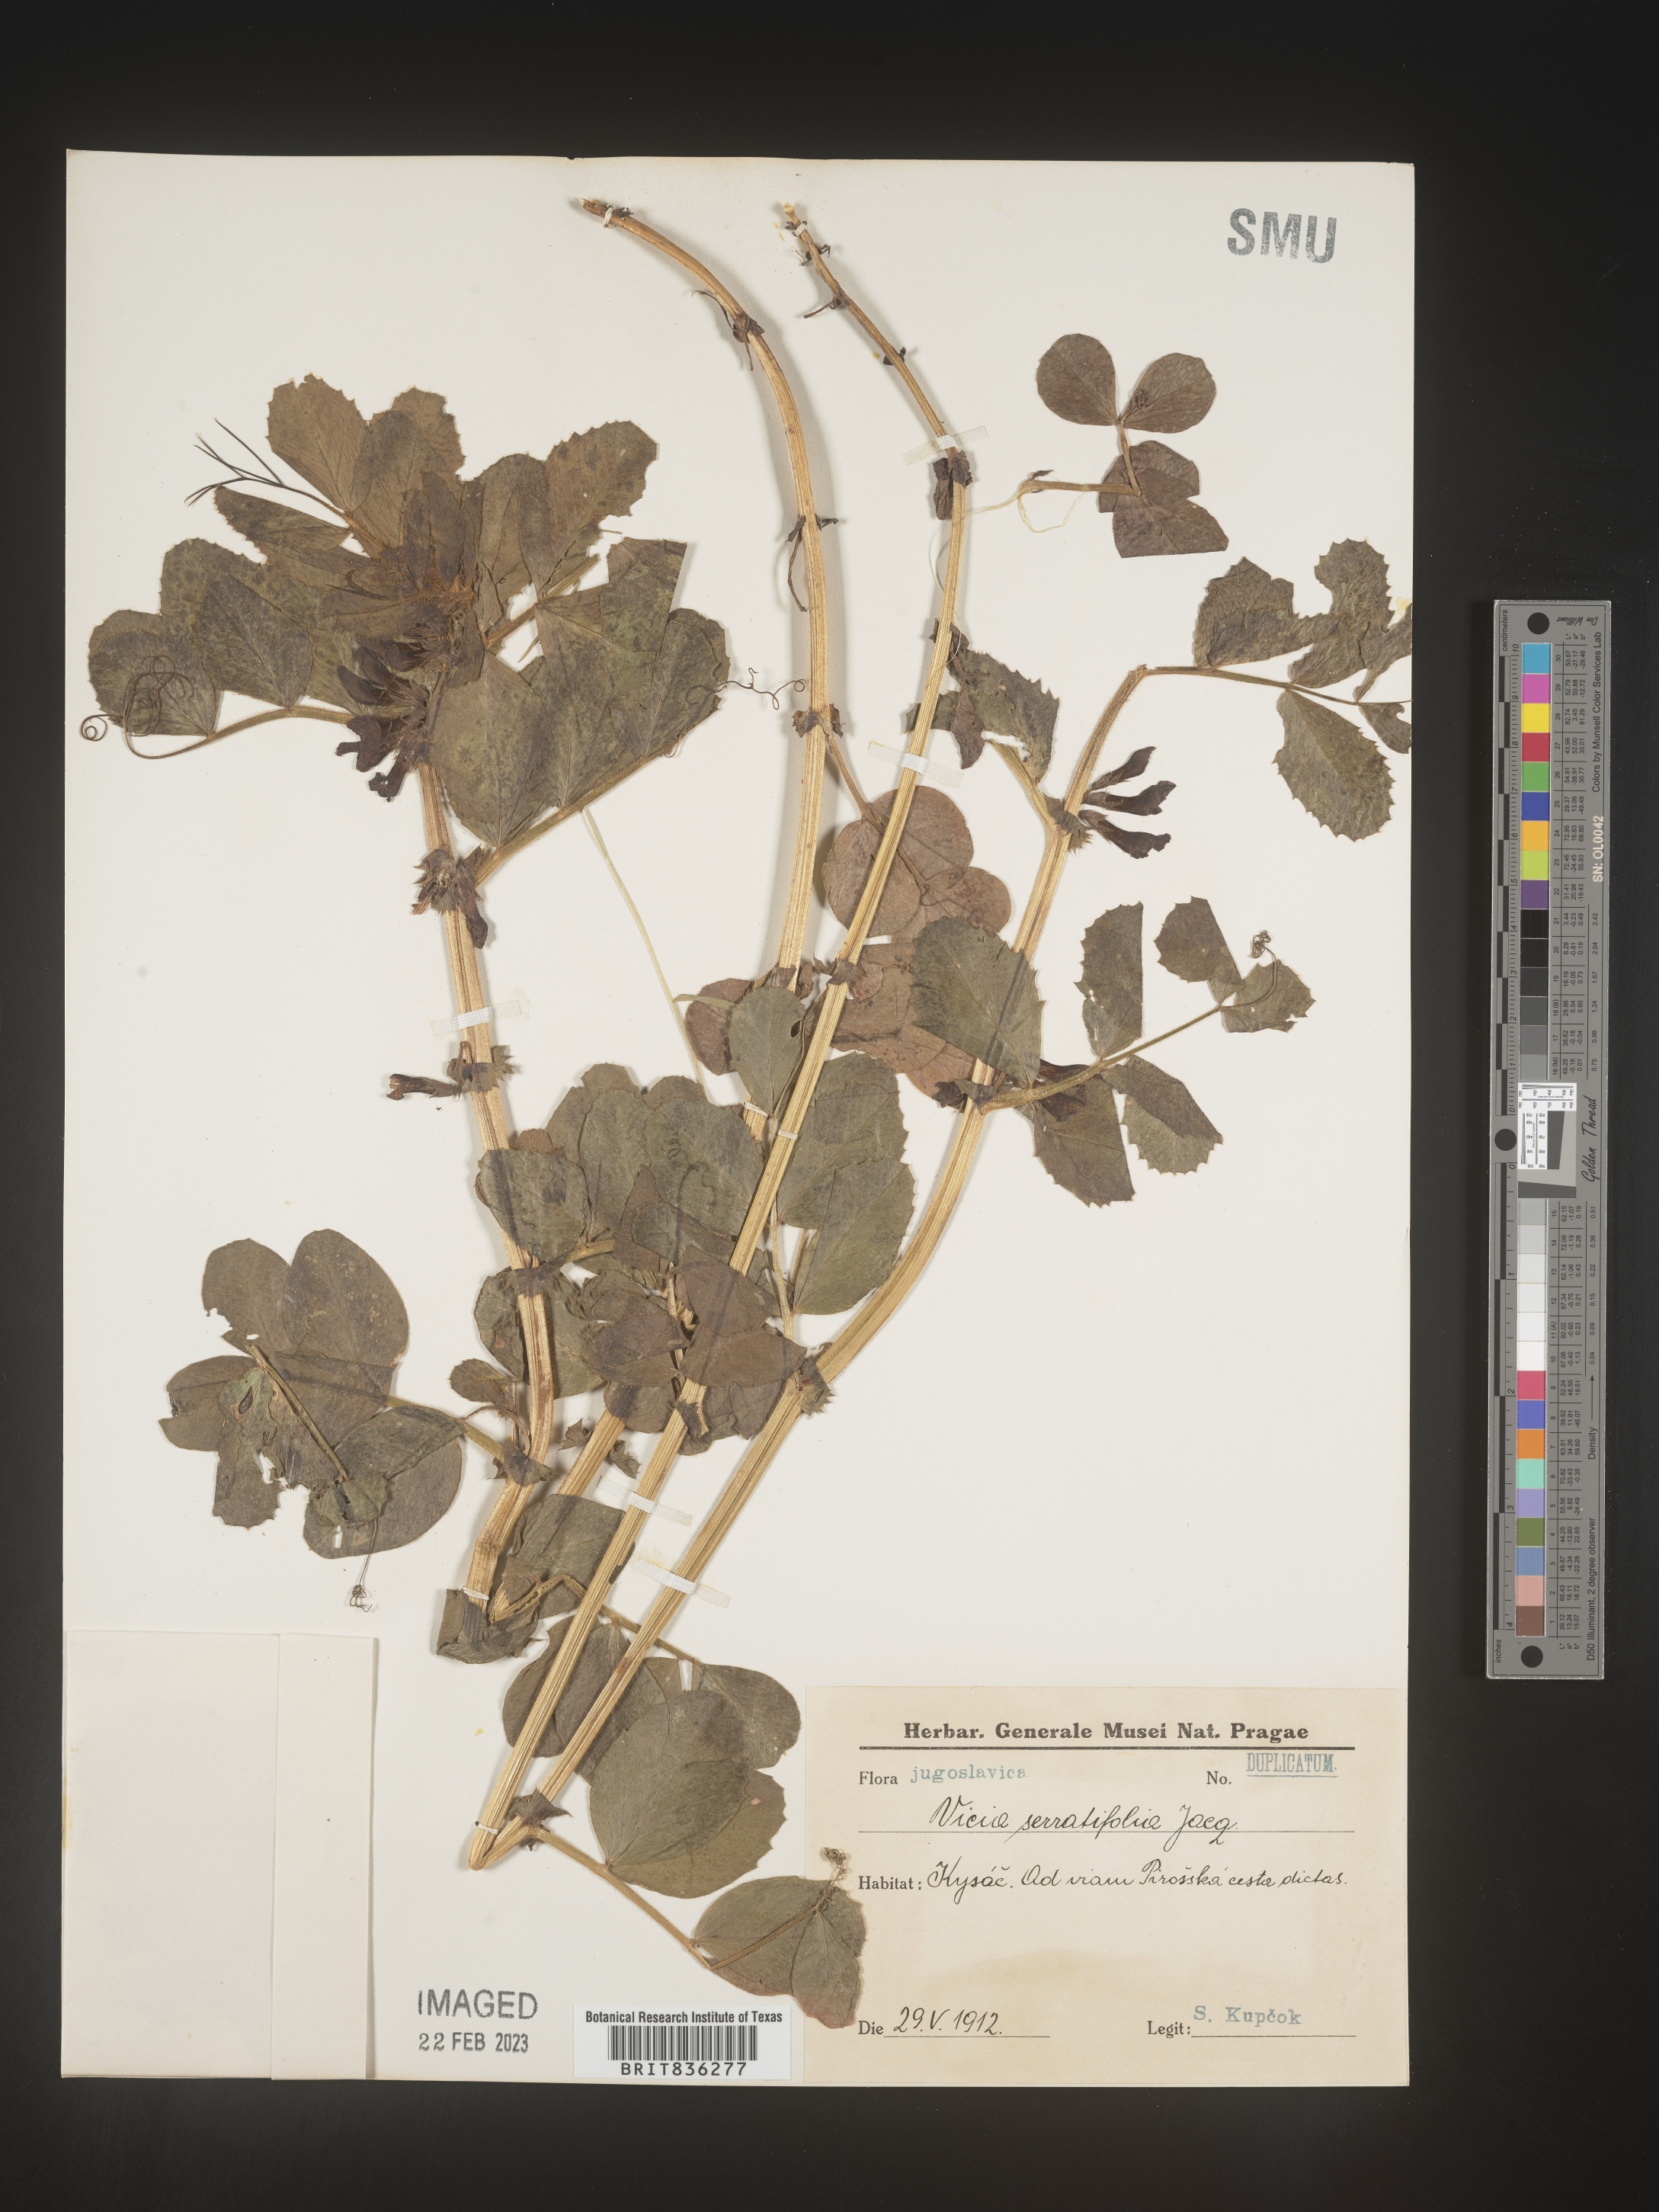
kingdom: Plantae
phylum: Tracheophyta
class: Magnoliopsida
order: Fabales
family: Fabaceae
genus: Vicia
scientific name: Vicia
